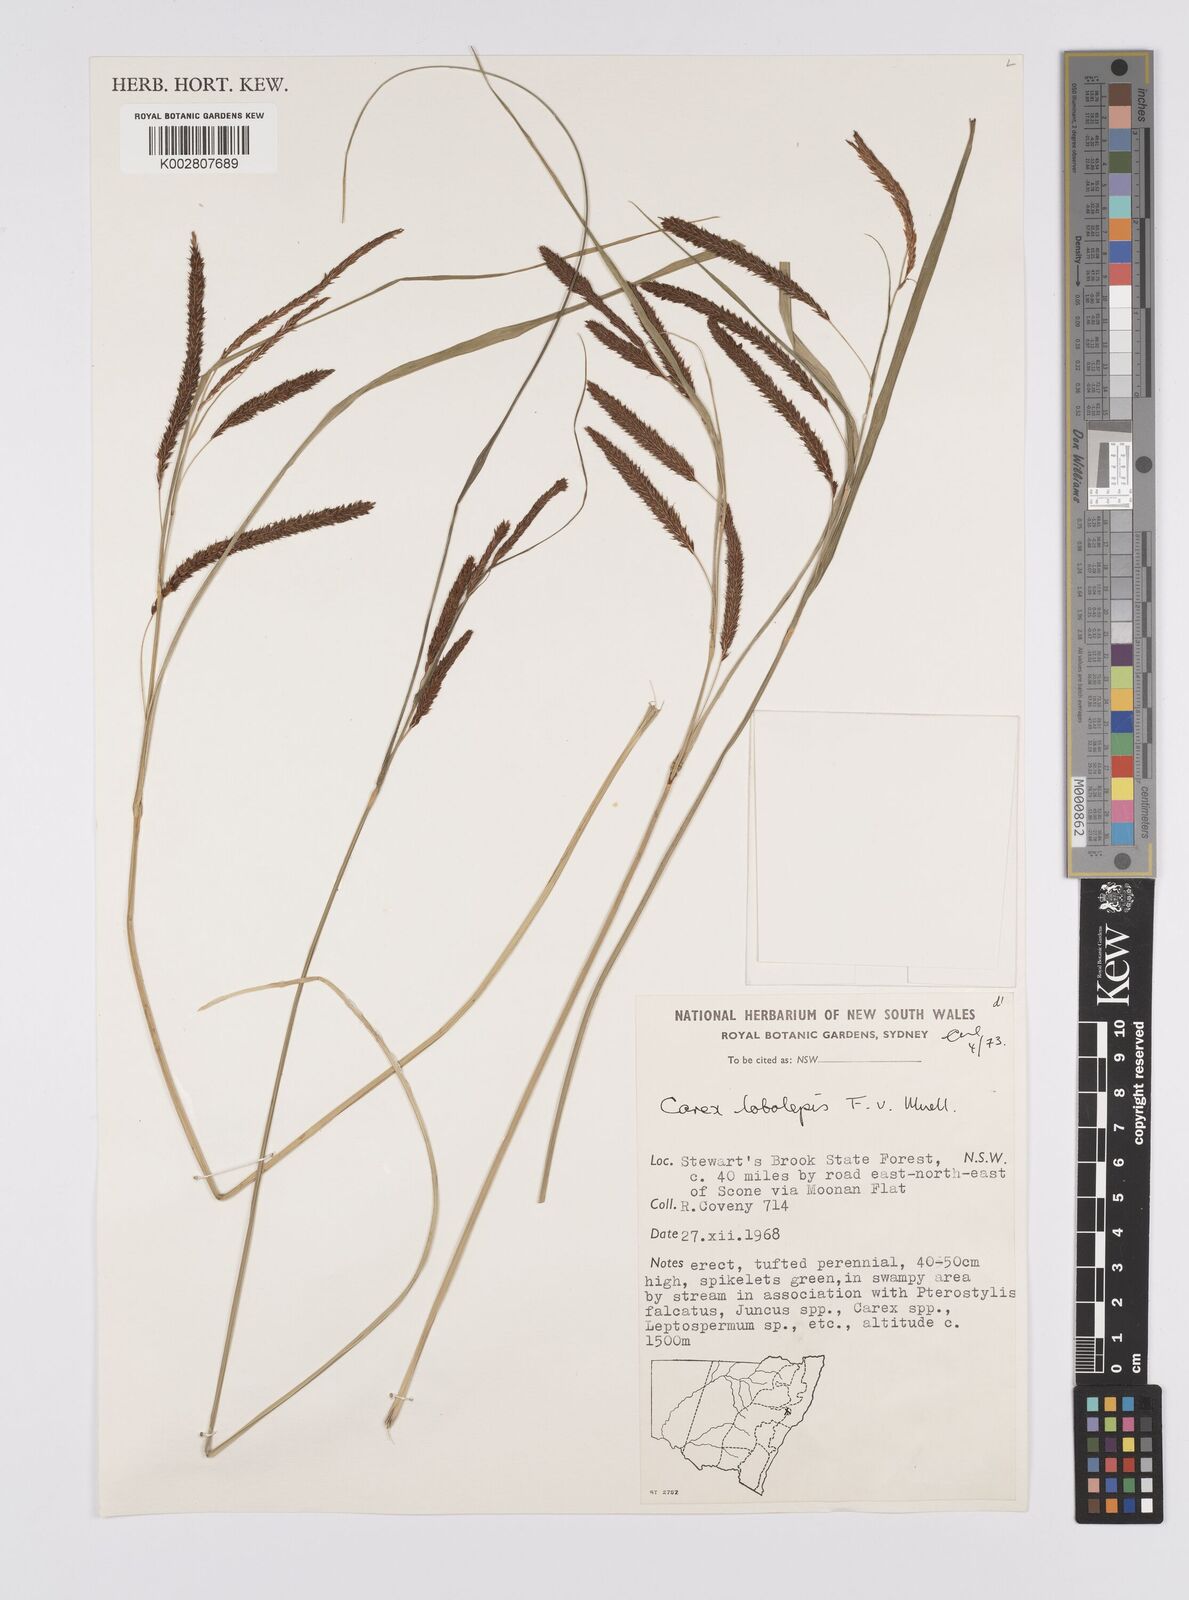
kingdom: Plantae
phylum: Tracheophyta
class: Liliopsida
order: Poales
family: Cyperaceae
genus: Carex
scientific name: Carex lobolepis
